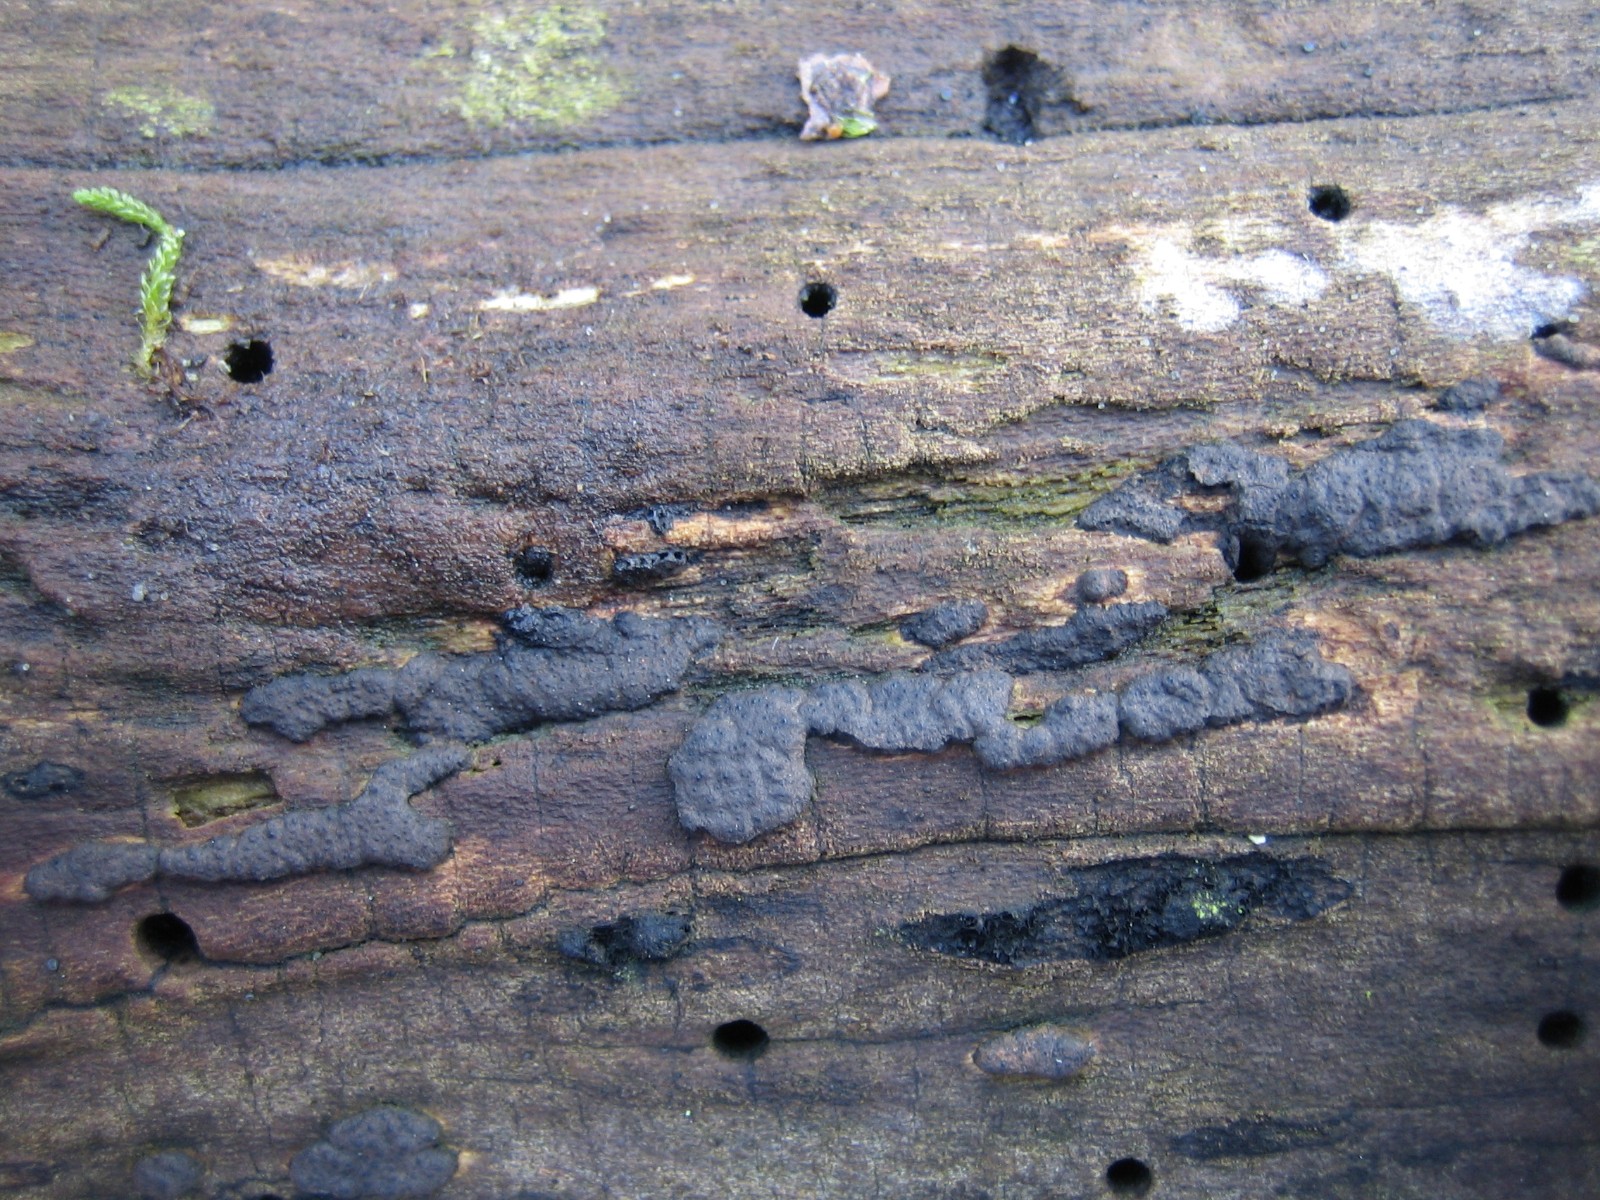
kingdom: Fungi
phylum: Ascomycota
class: Sordariomycetes
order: Xylariales
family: Xylariaceae
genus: Nemania
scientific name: Nemania
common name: kuldyne
